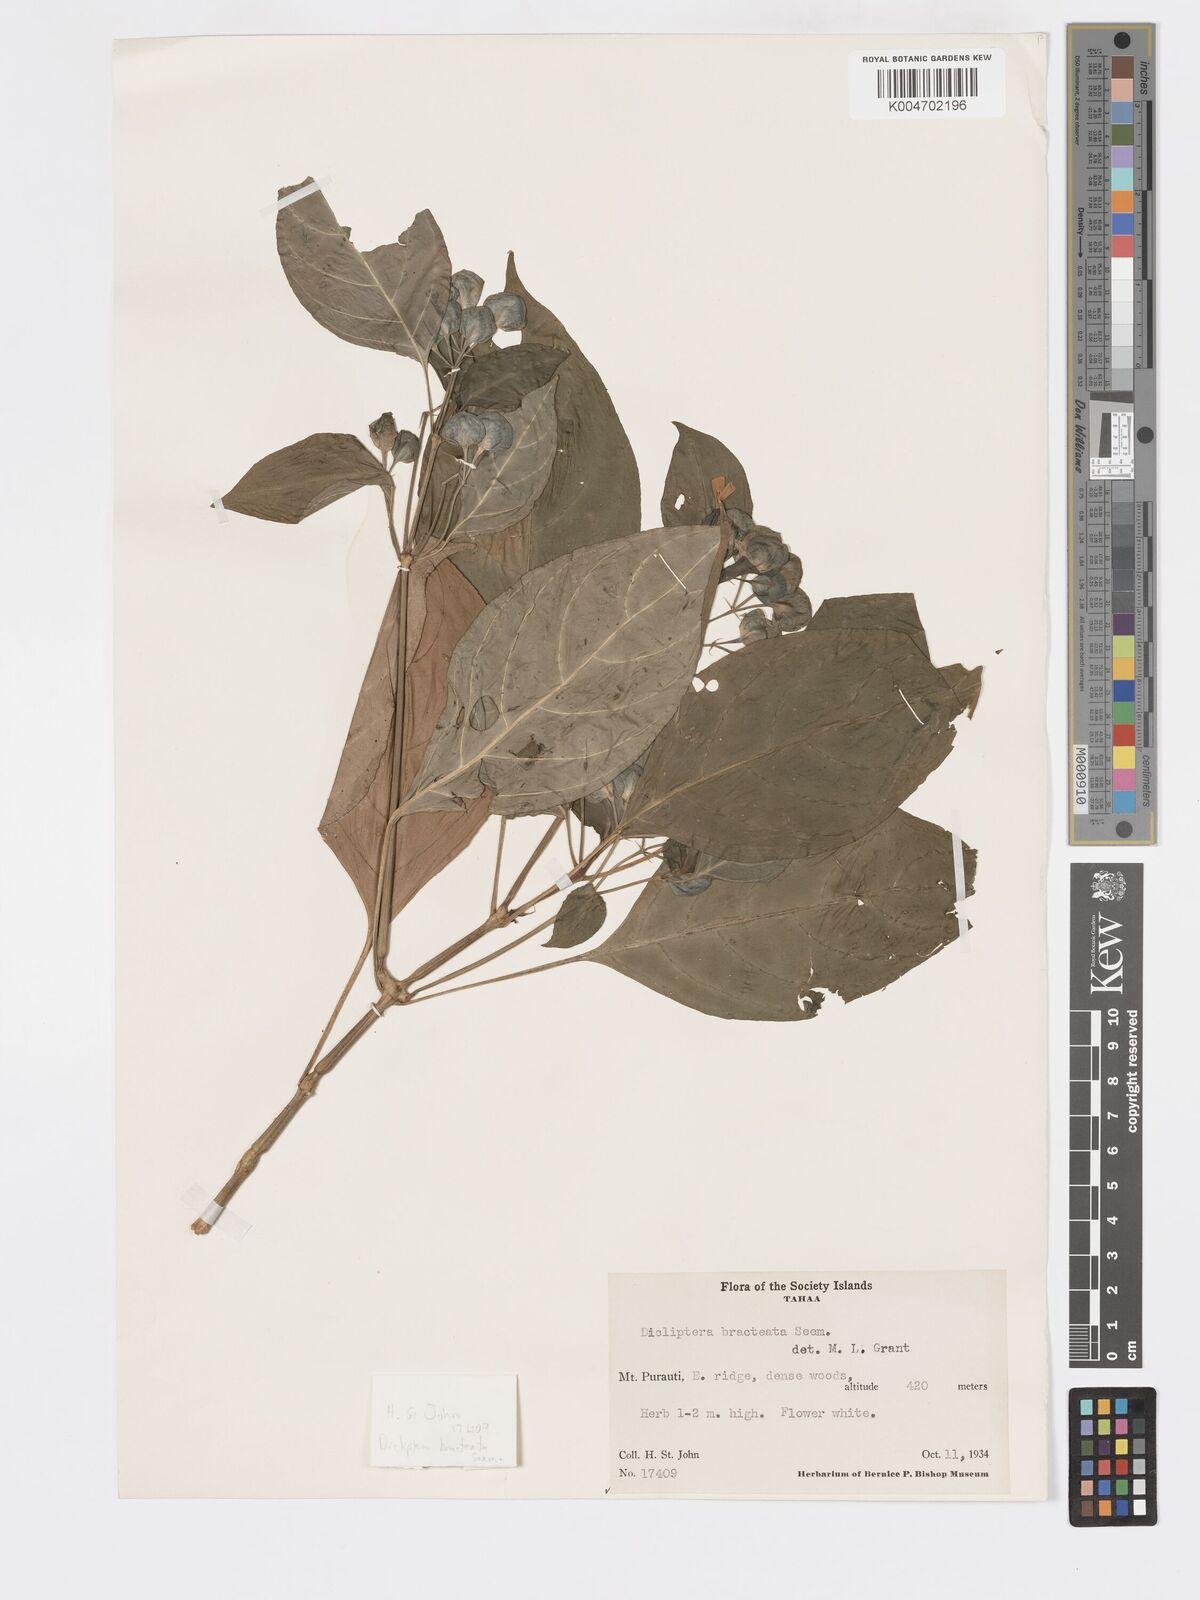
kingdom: Plantae
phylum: Tracheophyta
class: Magnoliopsida
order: Lamiales
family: Acanthaceae
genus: Dicliptera
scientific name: Dicliptera bracteata
